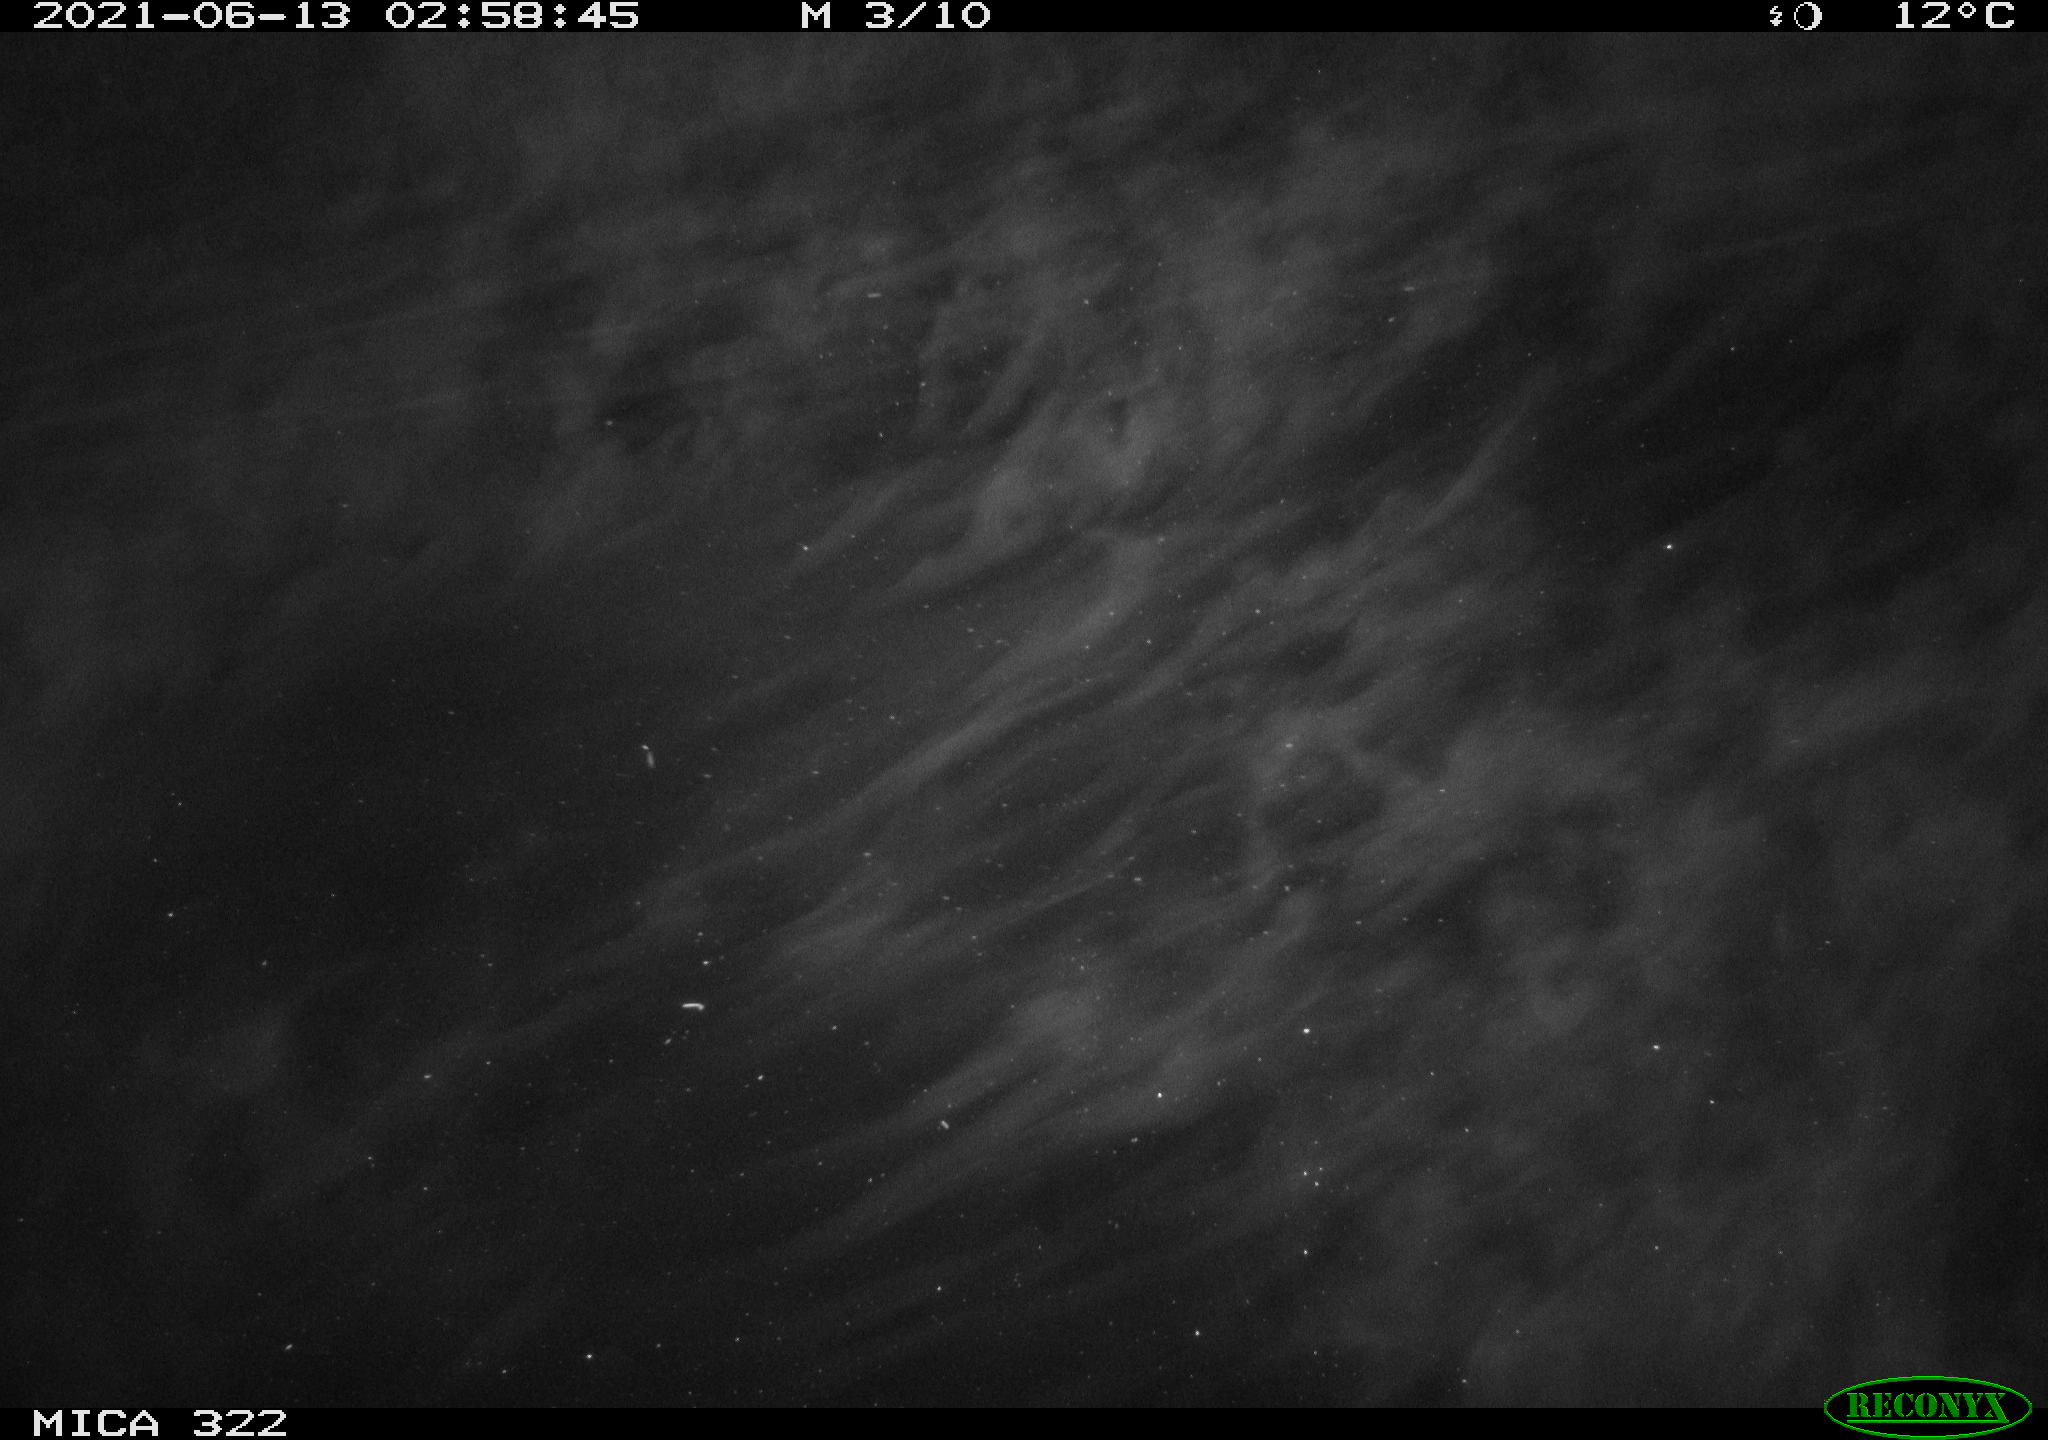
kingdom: Animalia
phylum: Chordata
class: Aves
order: Anseriformes
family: Anatidae
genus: Anas
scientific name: Anas platyrhynchos
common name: Mallard
